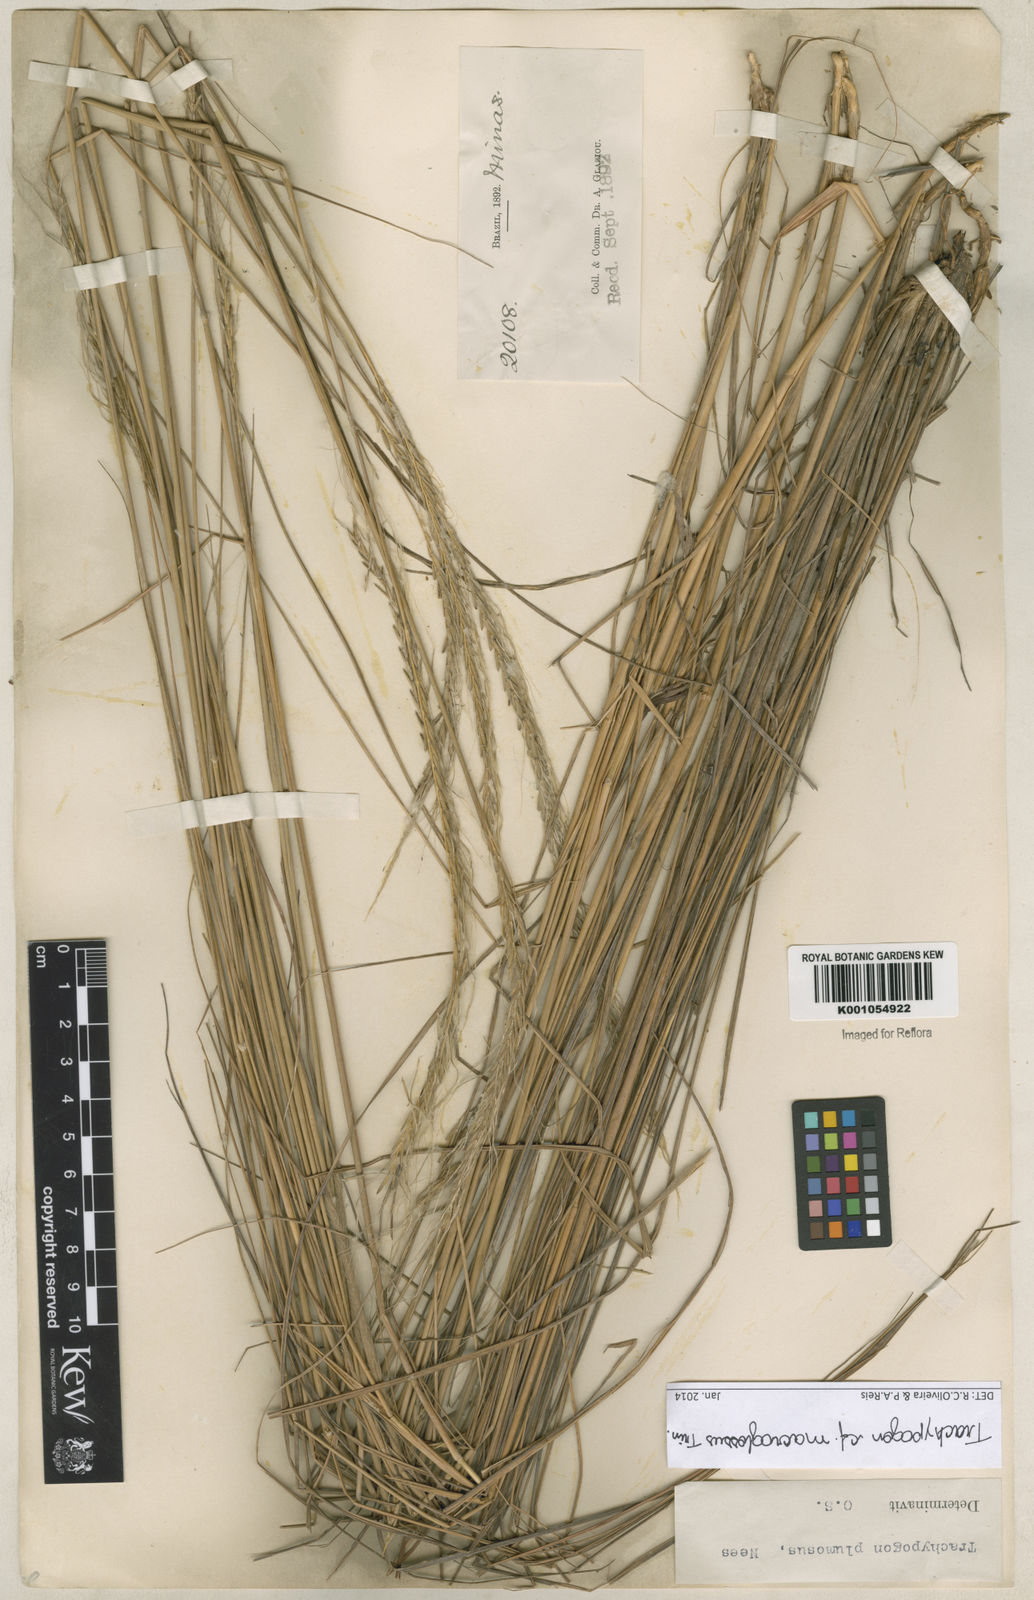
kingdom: Plantae
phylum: Tracheophyta
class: Liliopsida
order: Poales
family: Poaceae
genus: Trachypogon
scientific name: Trachypogon macroglossus
